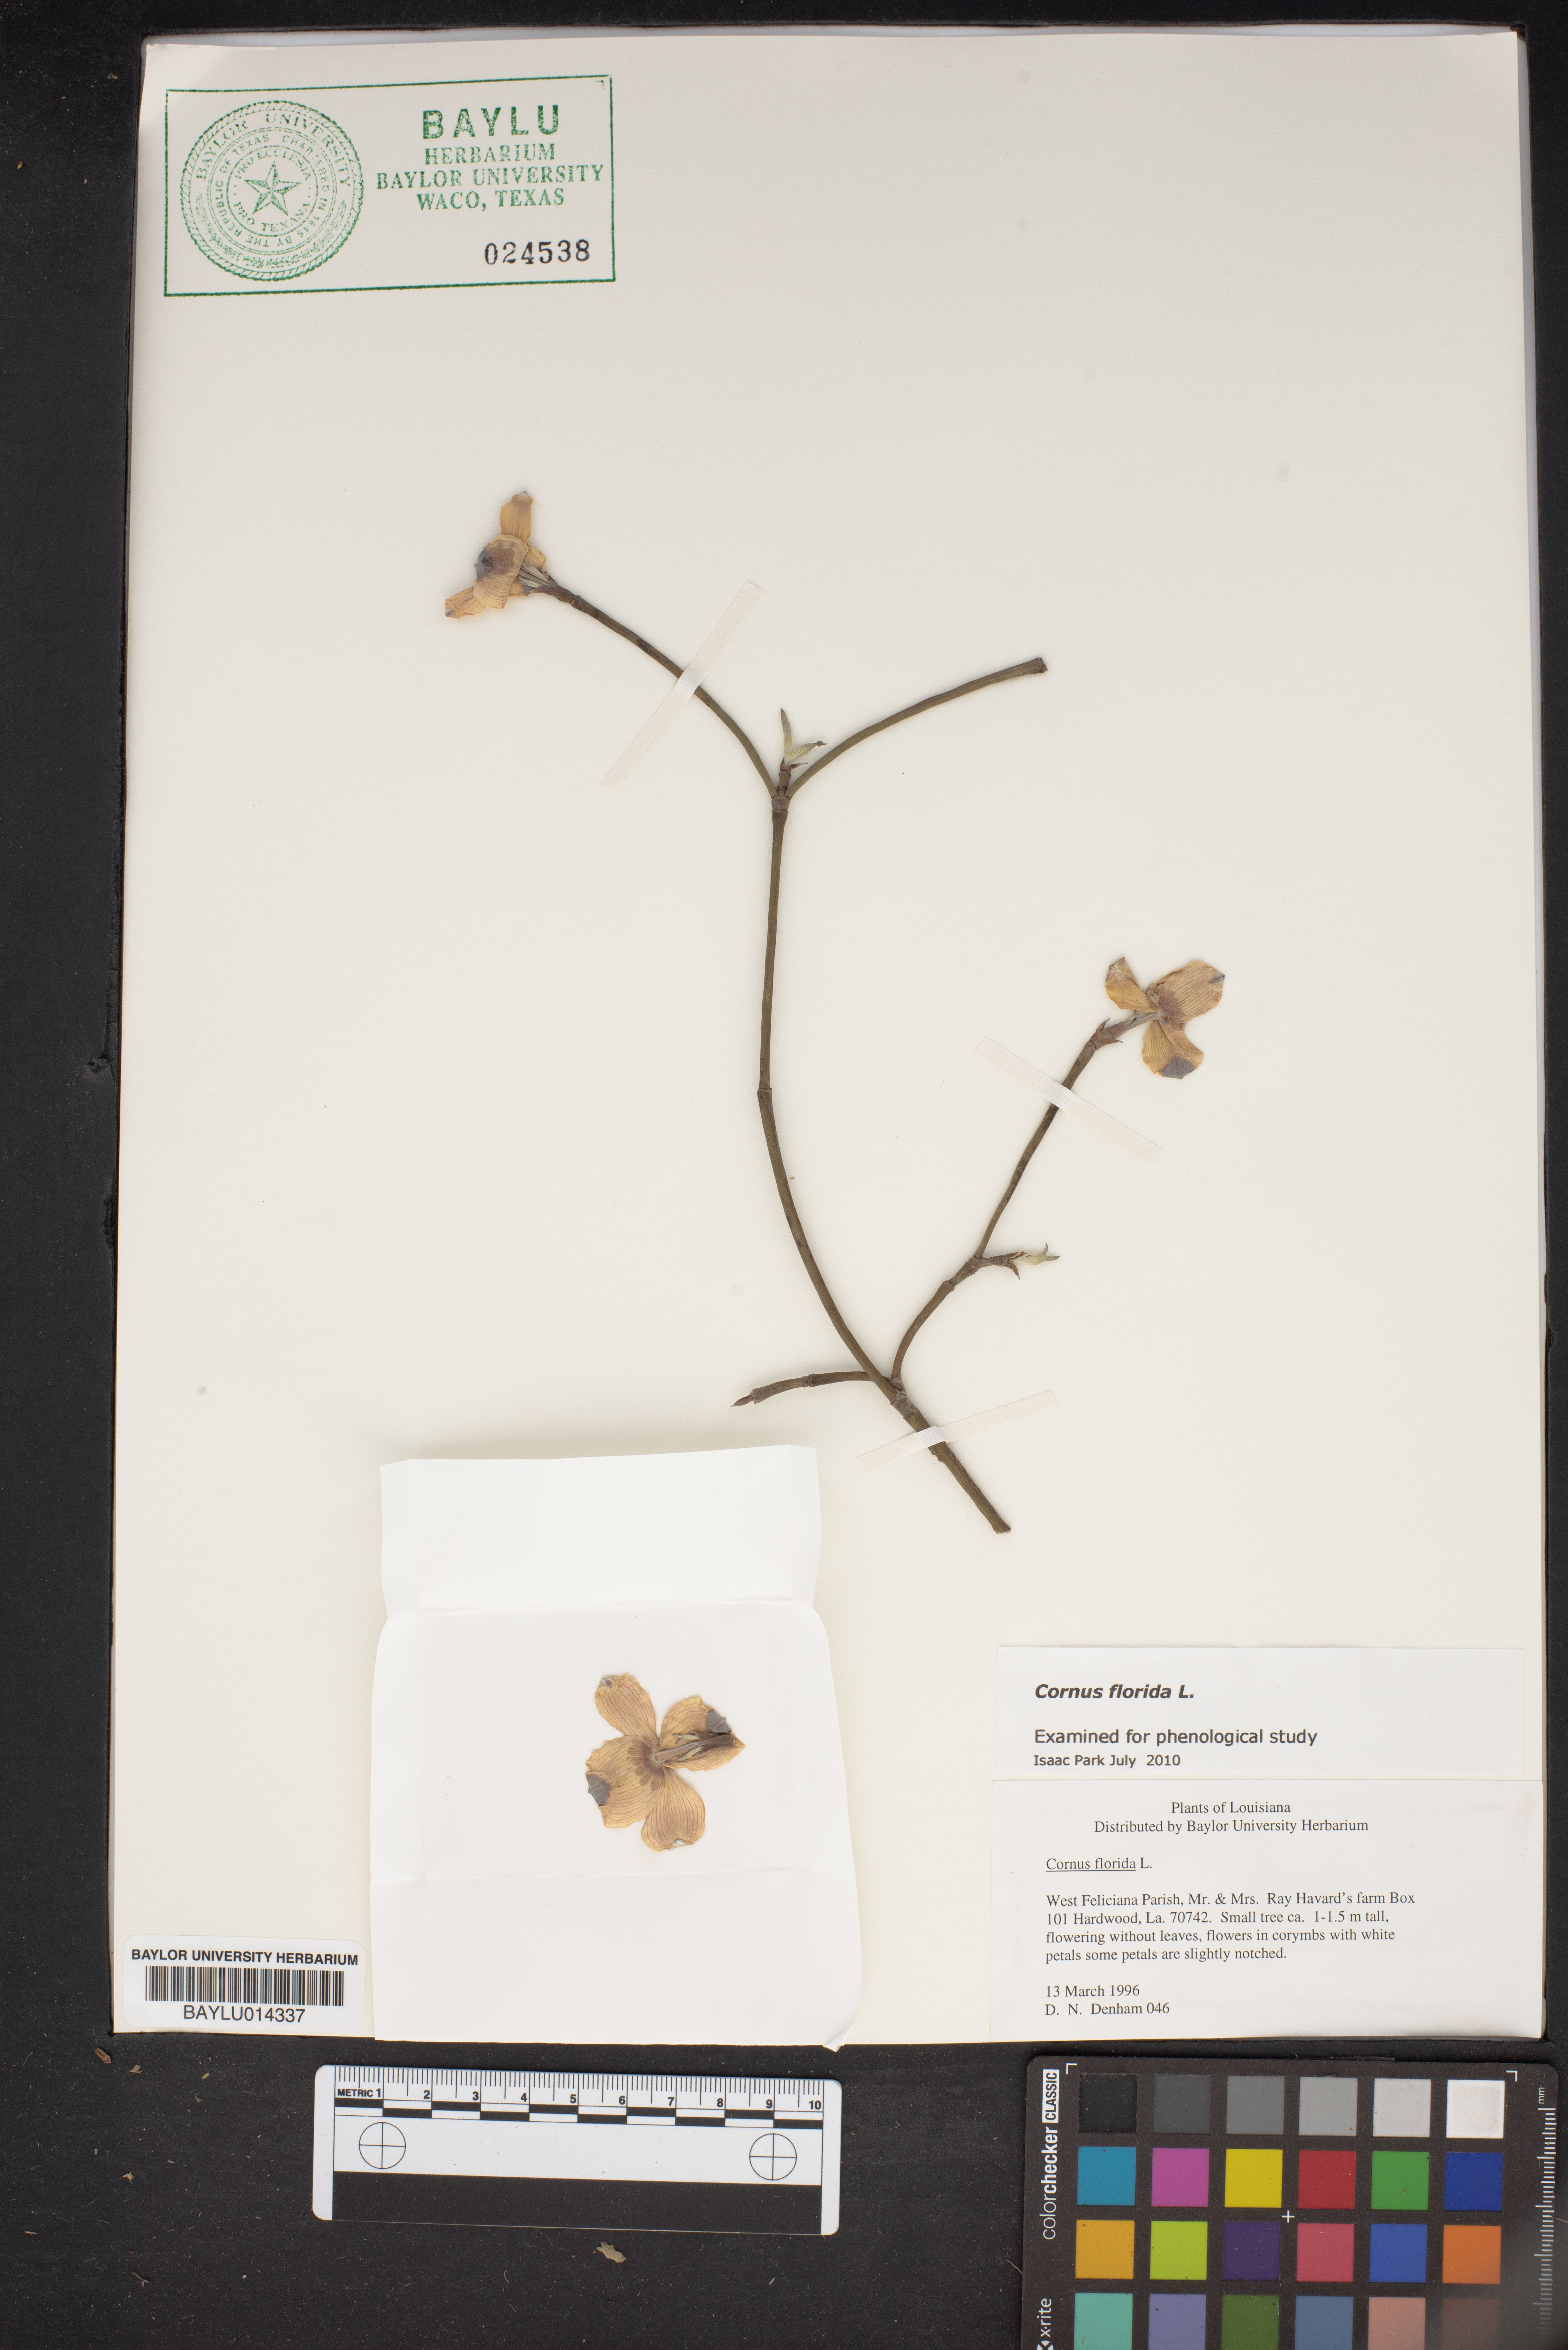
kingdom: Plantae
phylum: Tracheophyta
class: Magnoliopsida
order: Cornales
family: Cornaceae
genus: Cornus
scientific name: Cornus florida
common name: Flowering dogwood
